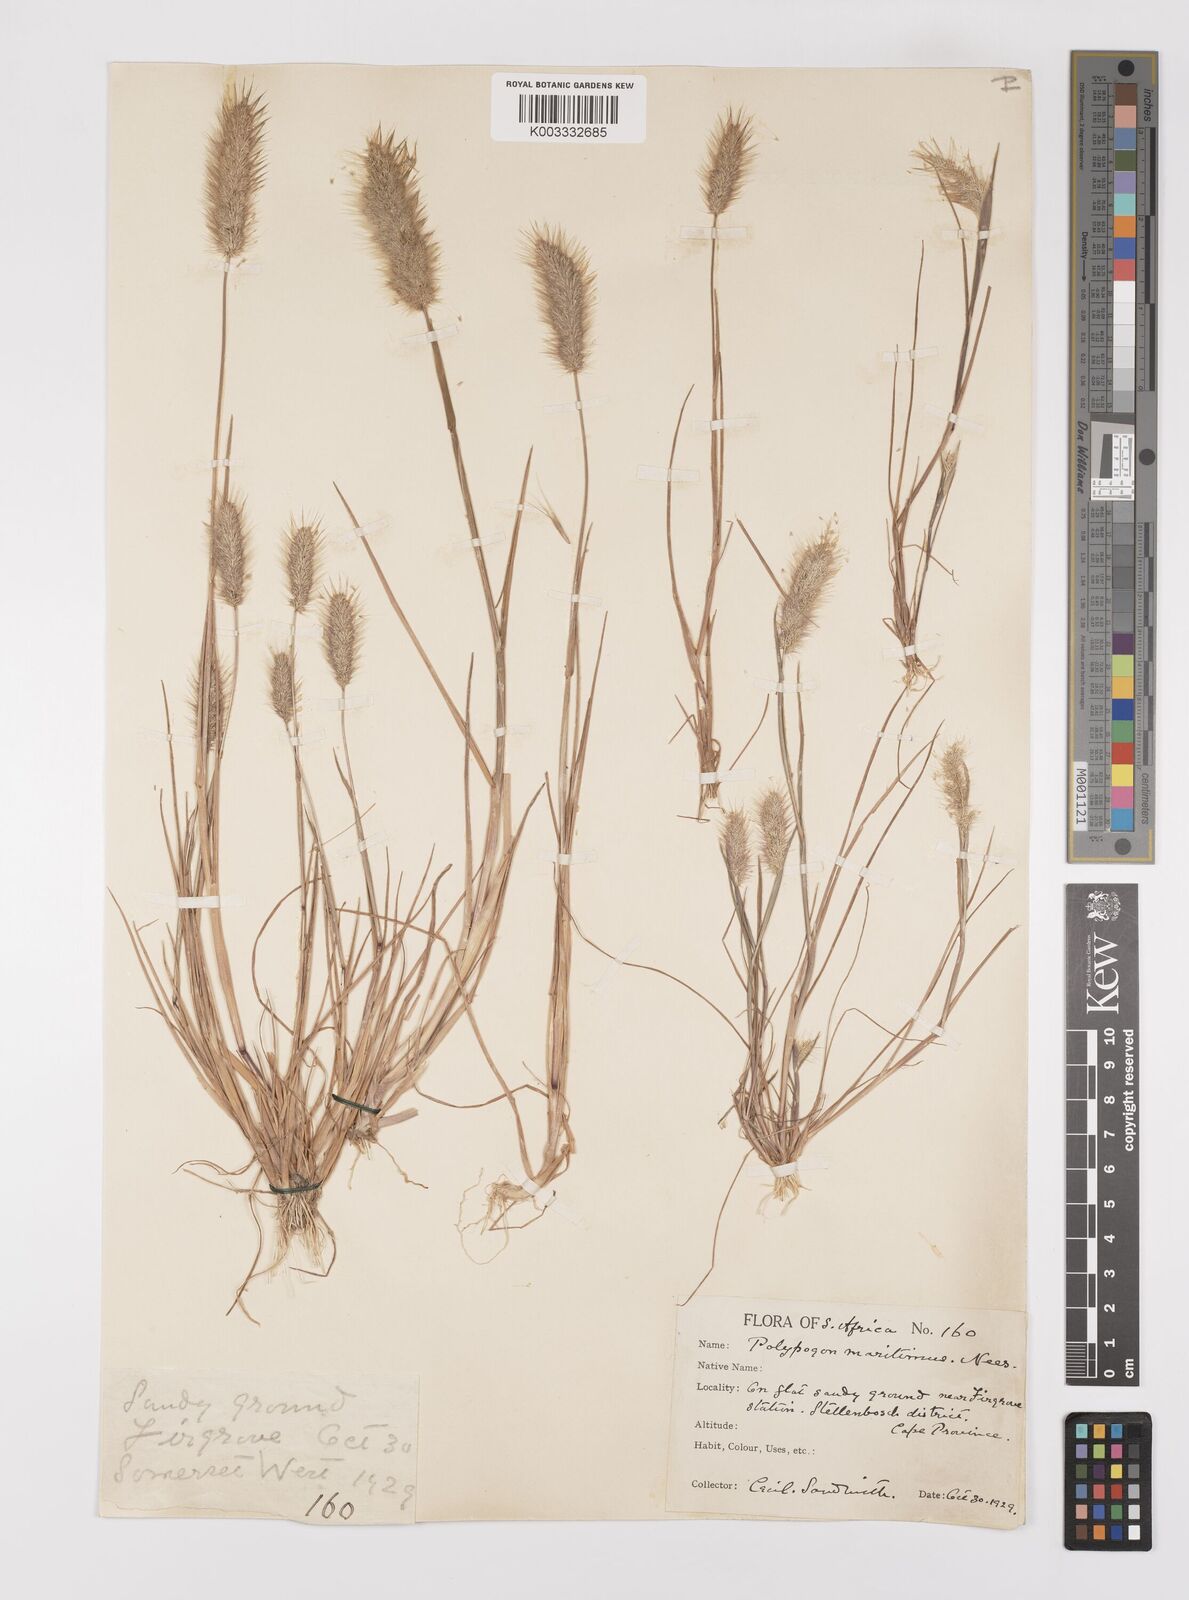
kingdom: Plantae
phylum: Tracheophyta
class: Liliopsida
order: Poales
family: Poaceae
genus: Polypogon
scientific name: Polypogon monspeliensis
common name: Annual rabbitsfoot grass
